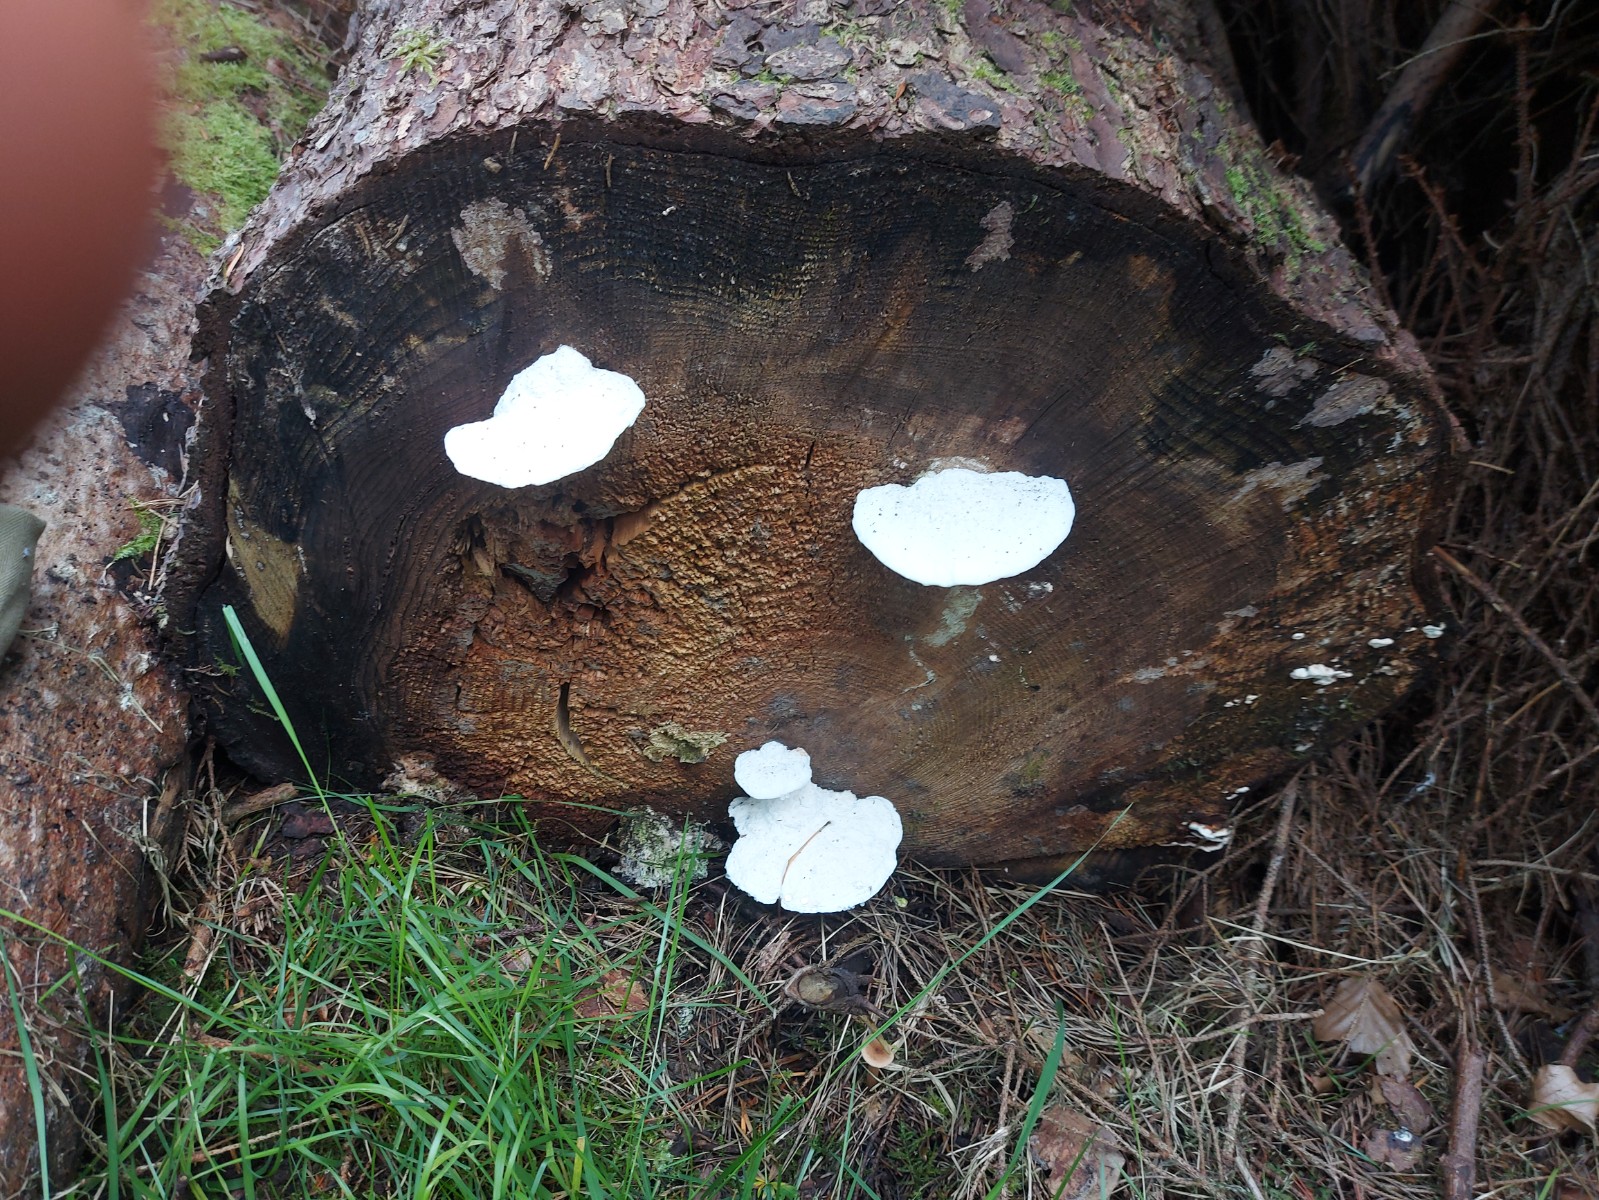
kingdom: Fungi
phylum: Basidiomycota
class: Agaricomycetes
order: Polyporales
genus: Amaropostia
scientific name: Amaropostia stiptica
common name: bitter kødporesvamp
